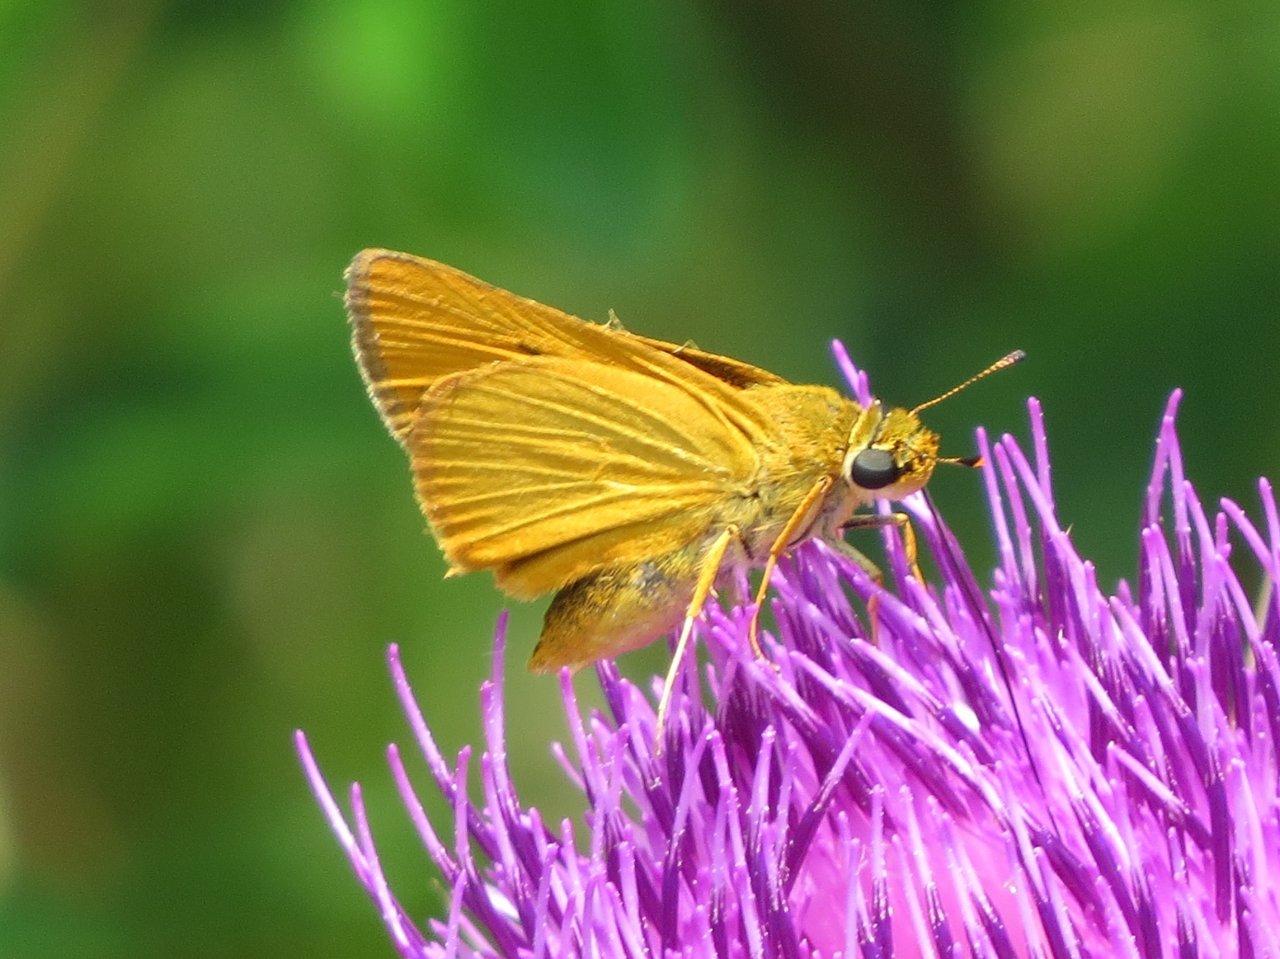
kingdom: Animalia
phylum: Arthropoda
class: Insecta
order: Lepidoptera
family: Hesperiidae
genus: Atrytone
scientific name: Atrytone delaware
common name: Delaware Skipper
